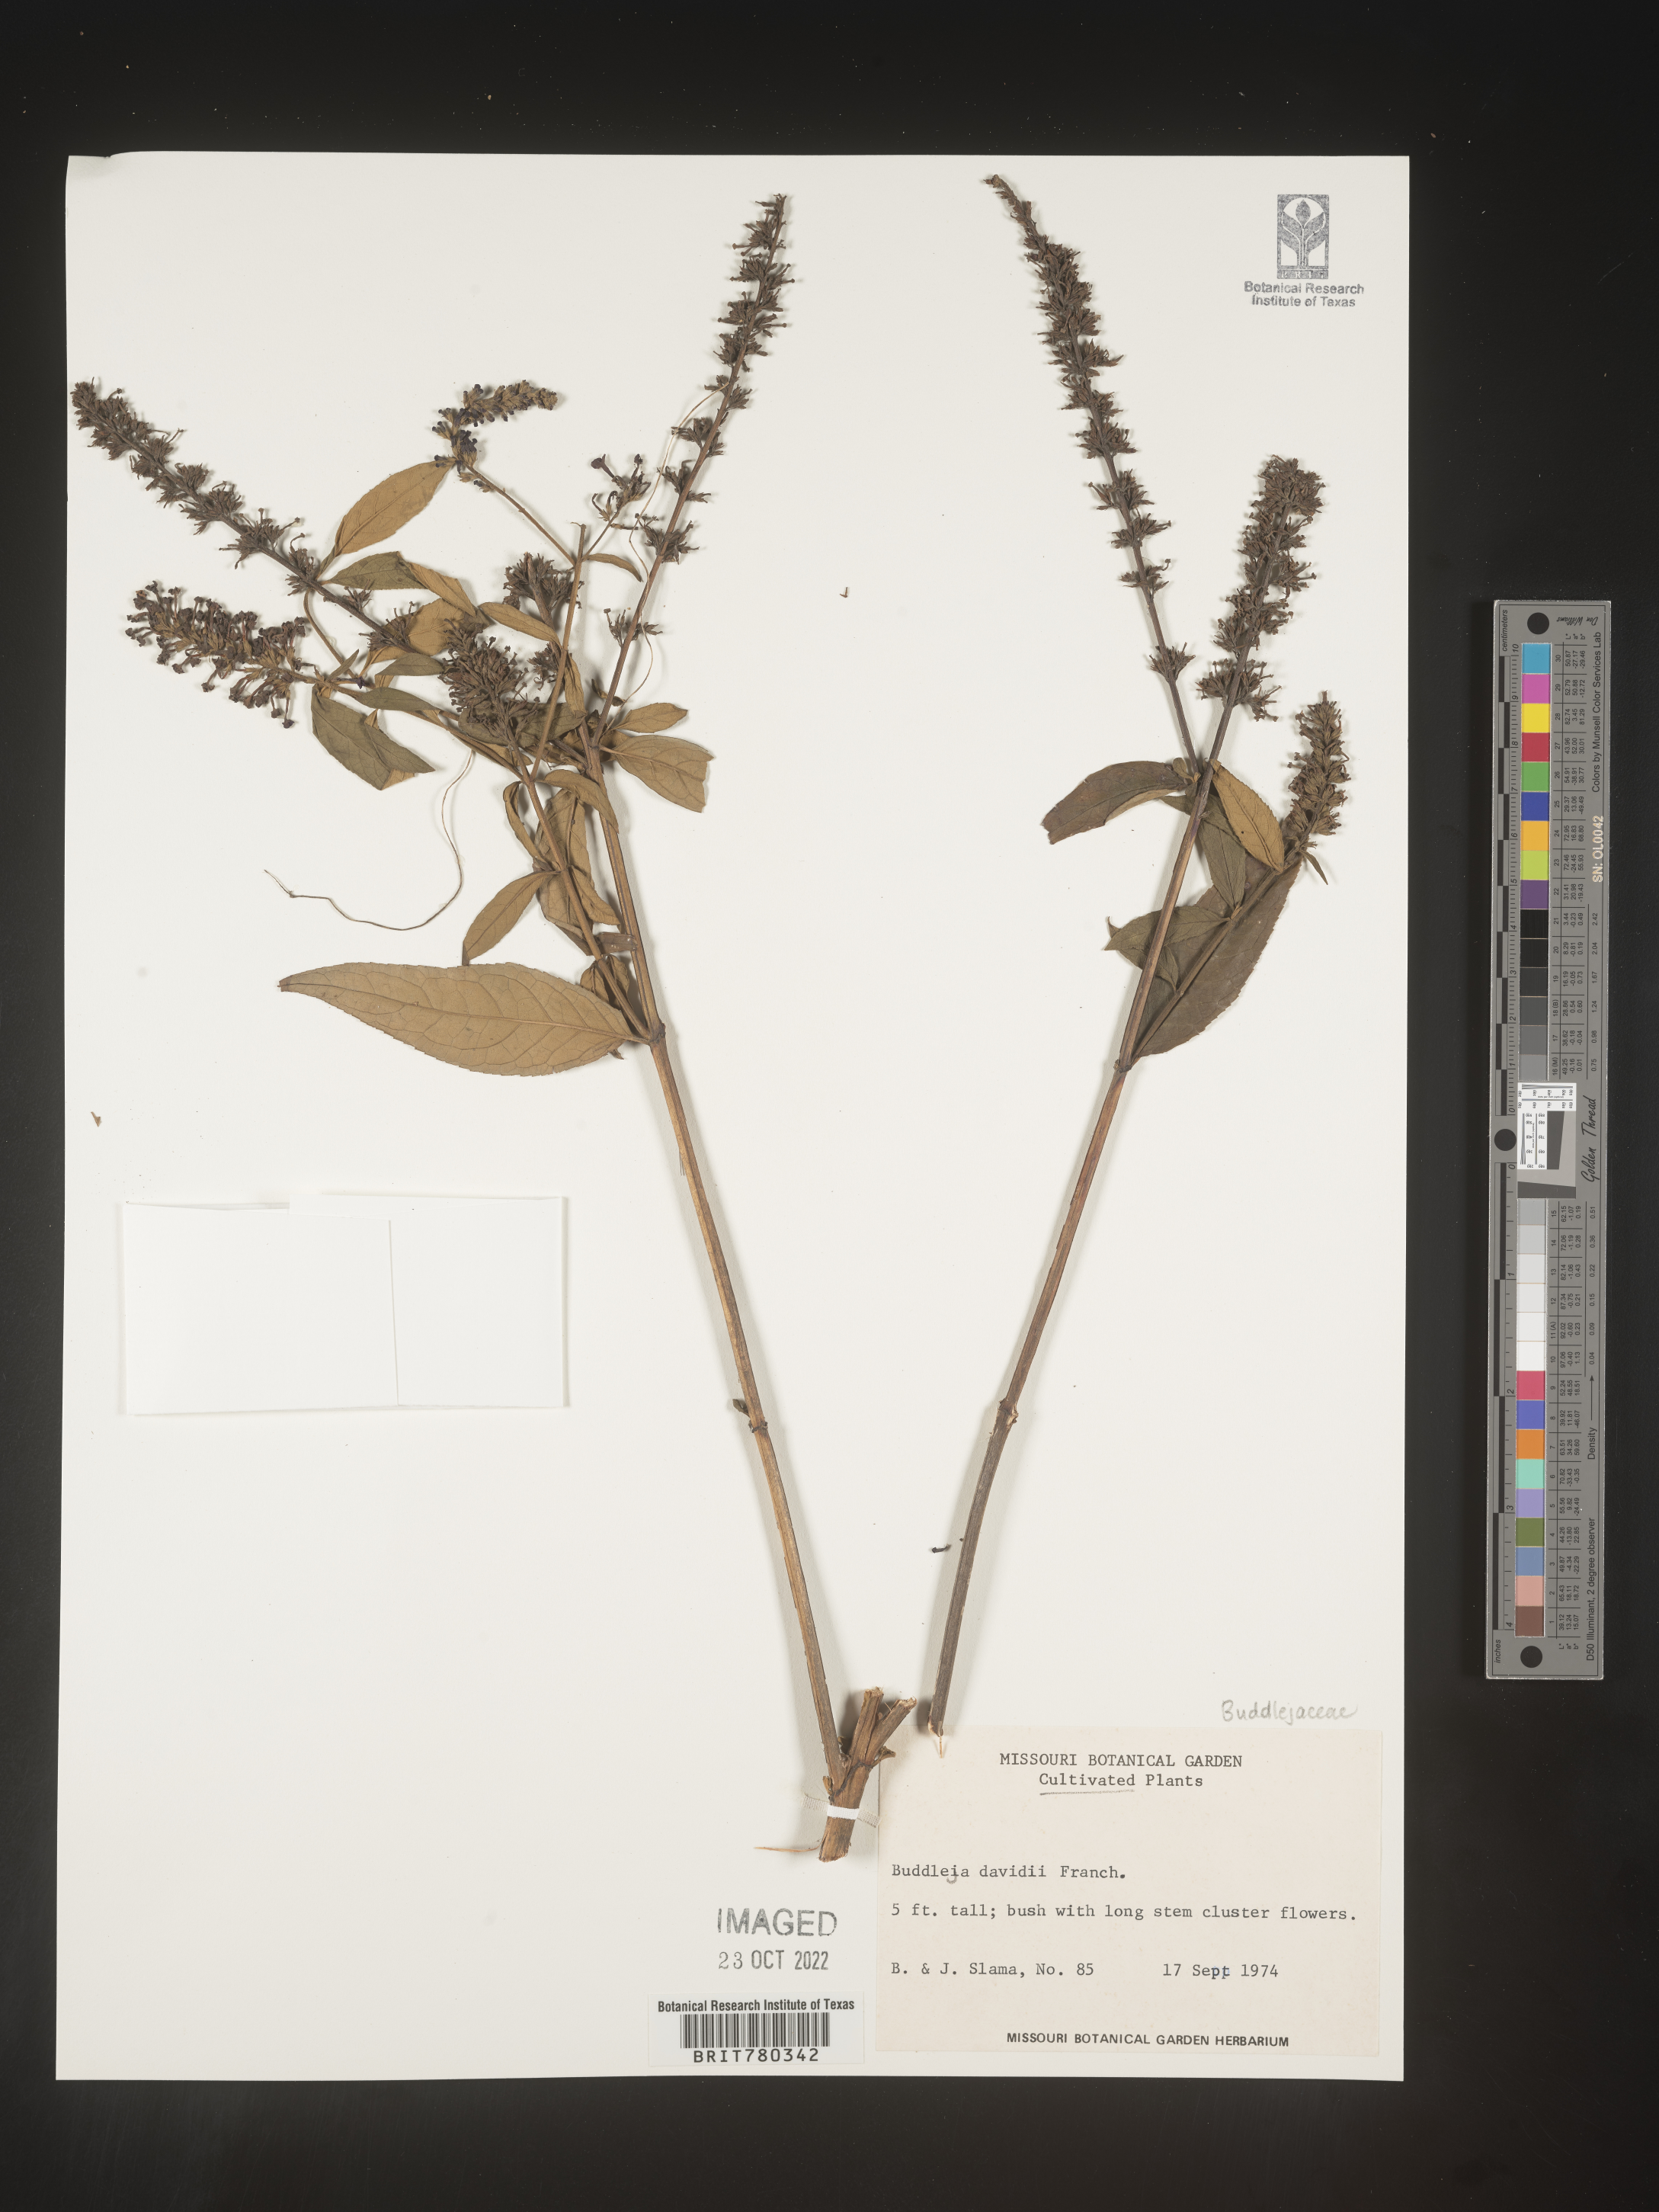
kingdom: Plantae
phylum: Tracheophyta
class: Magnoliopsida
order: Lamiales
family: Scrophulariaceae
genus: Buddleja
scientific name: Buddleja
